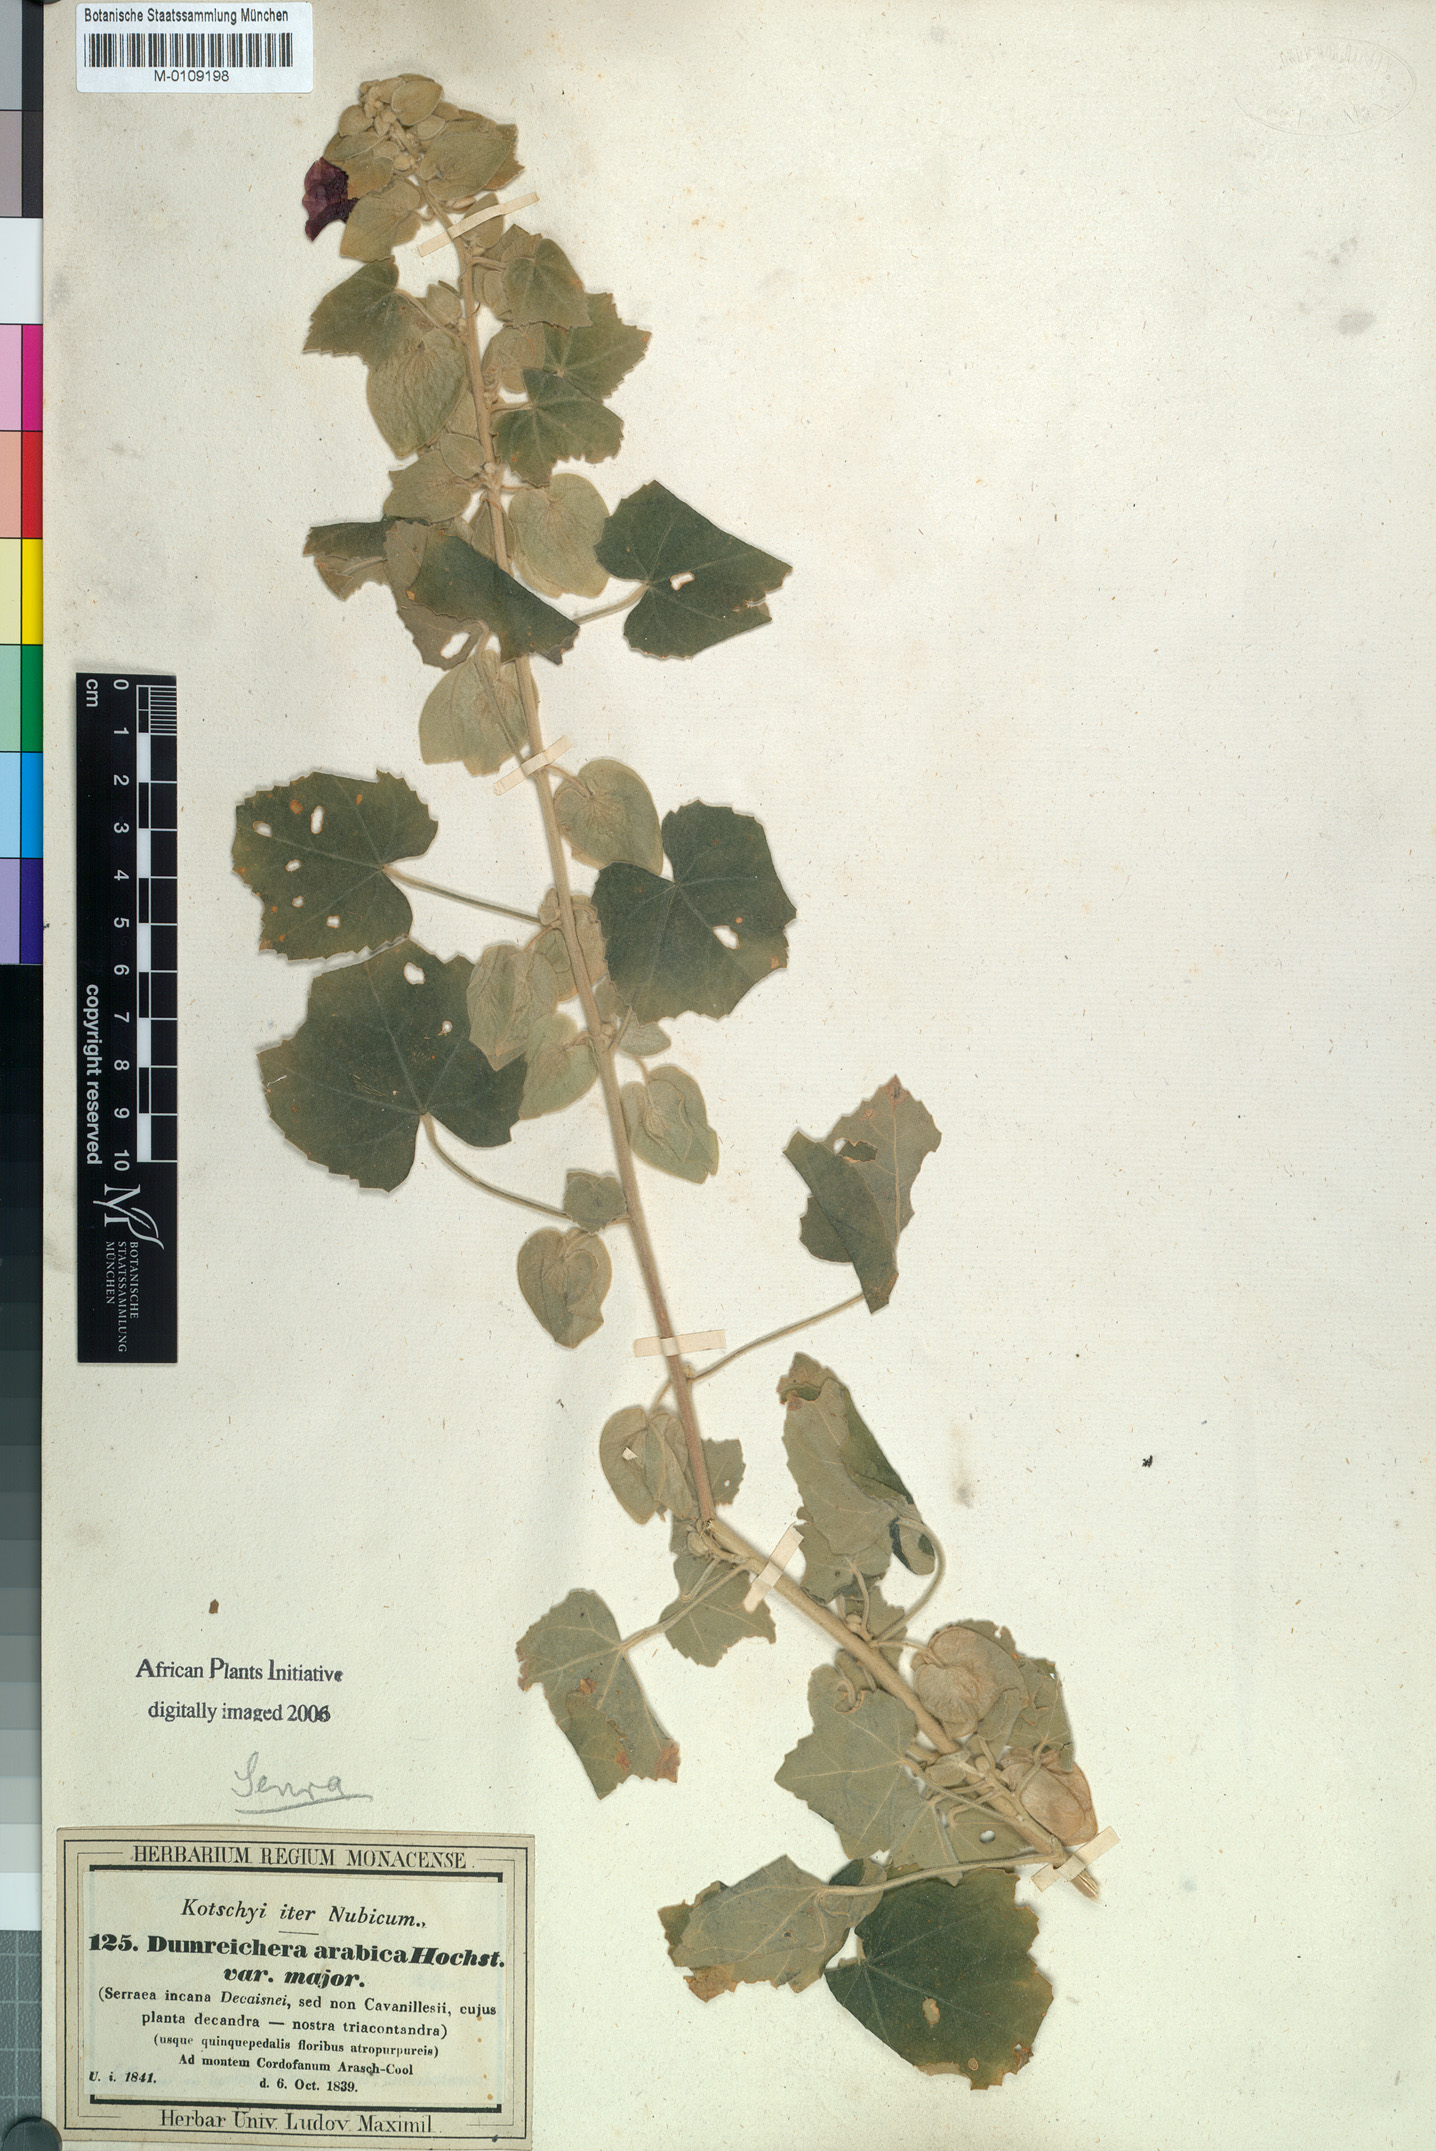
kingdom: Plantae
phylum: Tracheophyta
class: Magnoliopsida
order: Malvales
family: Malvaceae
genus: Senra
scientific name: Senra incana
